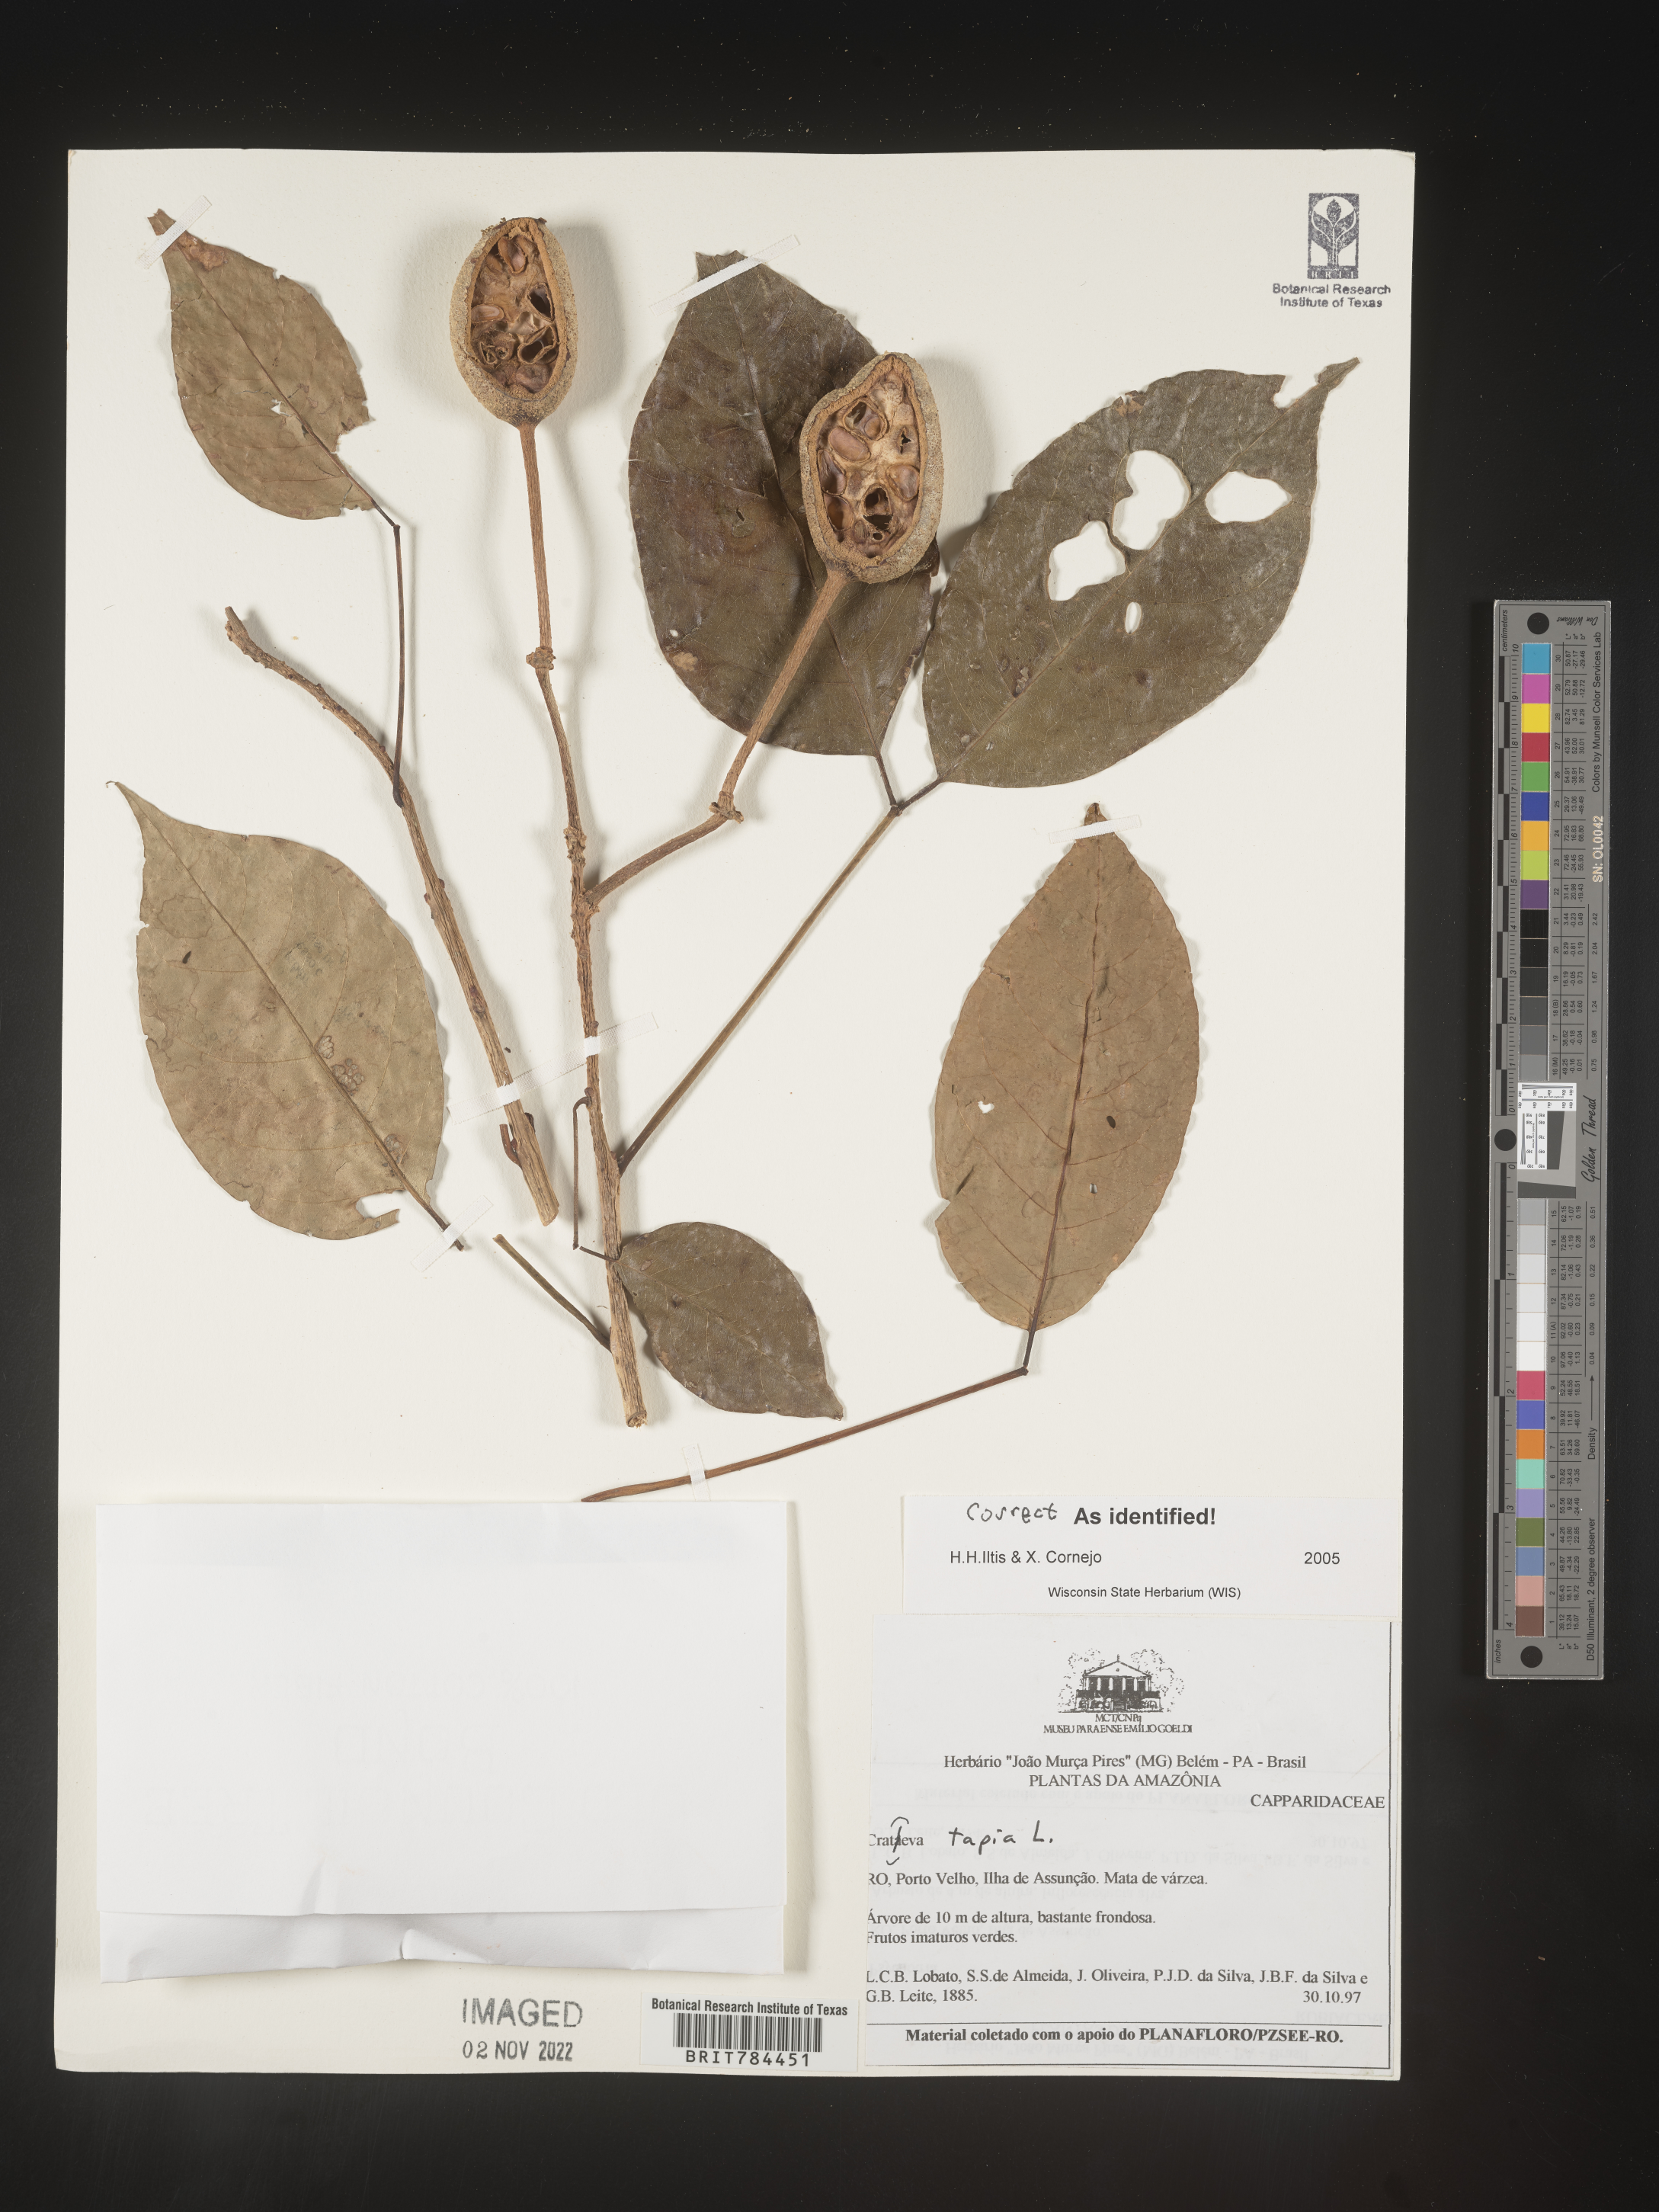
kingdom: Plantae
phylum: Tracheophyta
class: Magnoliopsida
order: Brassicales
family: Capparaceae
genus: Crateva
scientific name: Crateva
